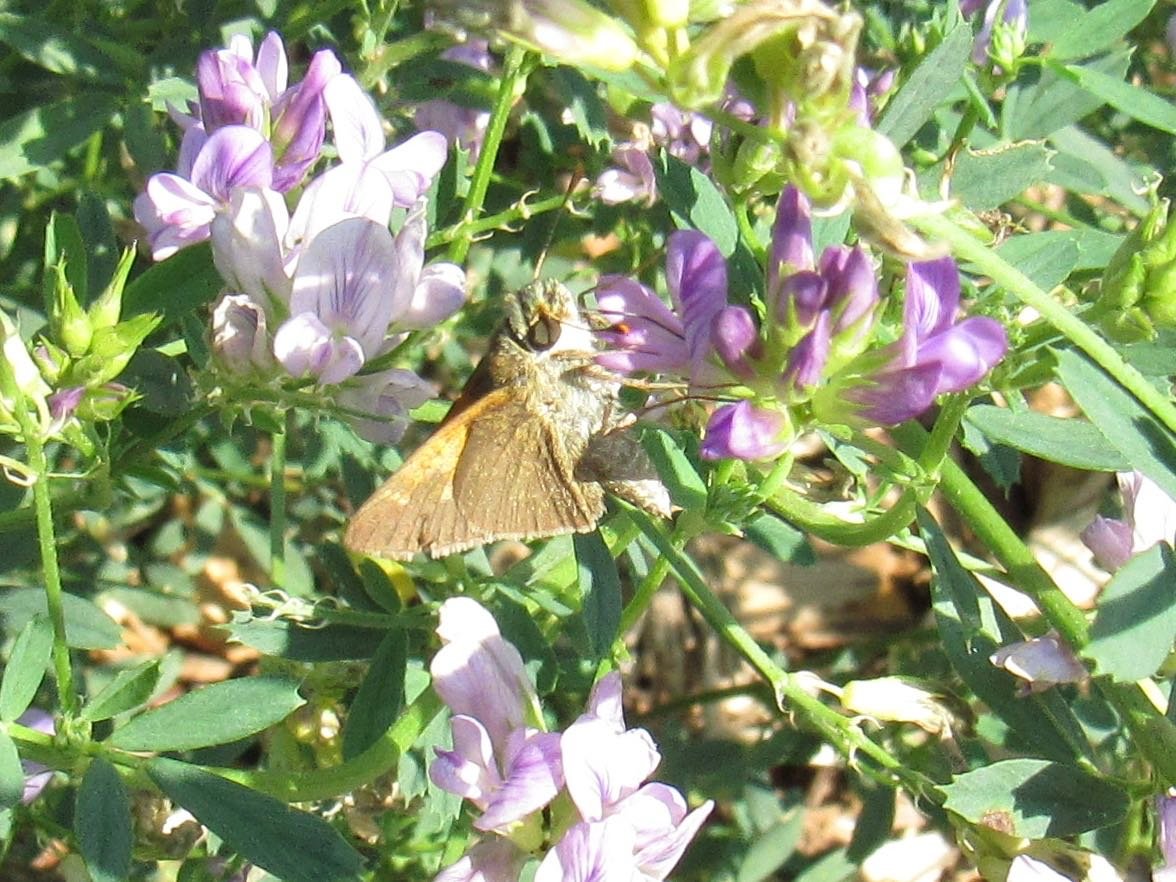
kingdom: Animalia
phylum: Arthropoda
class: Insecta
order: Lepidoptera
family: Hesperiidae
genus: Polites
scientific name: Polites themistocles
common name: Tawny-edged Skipper
